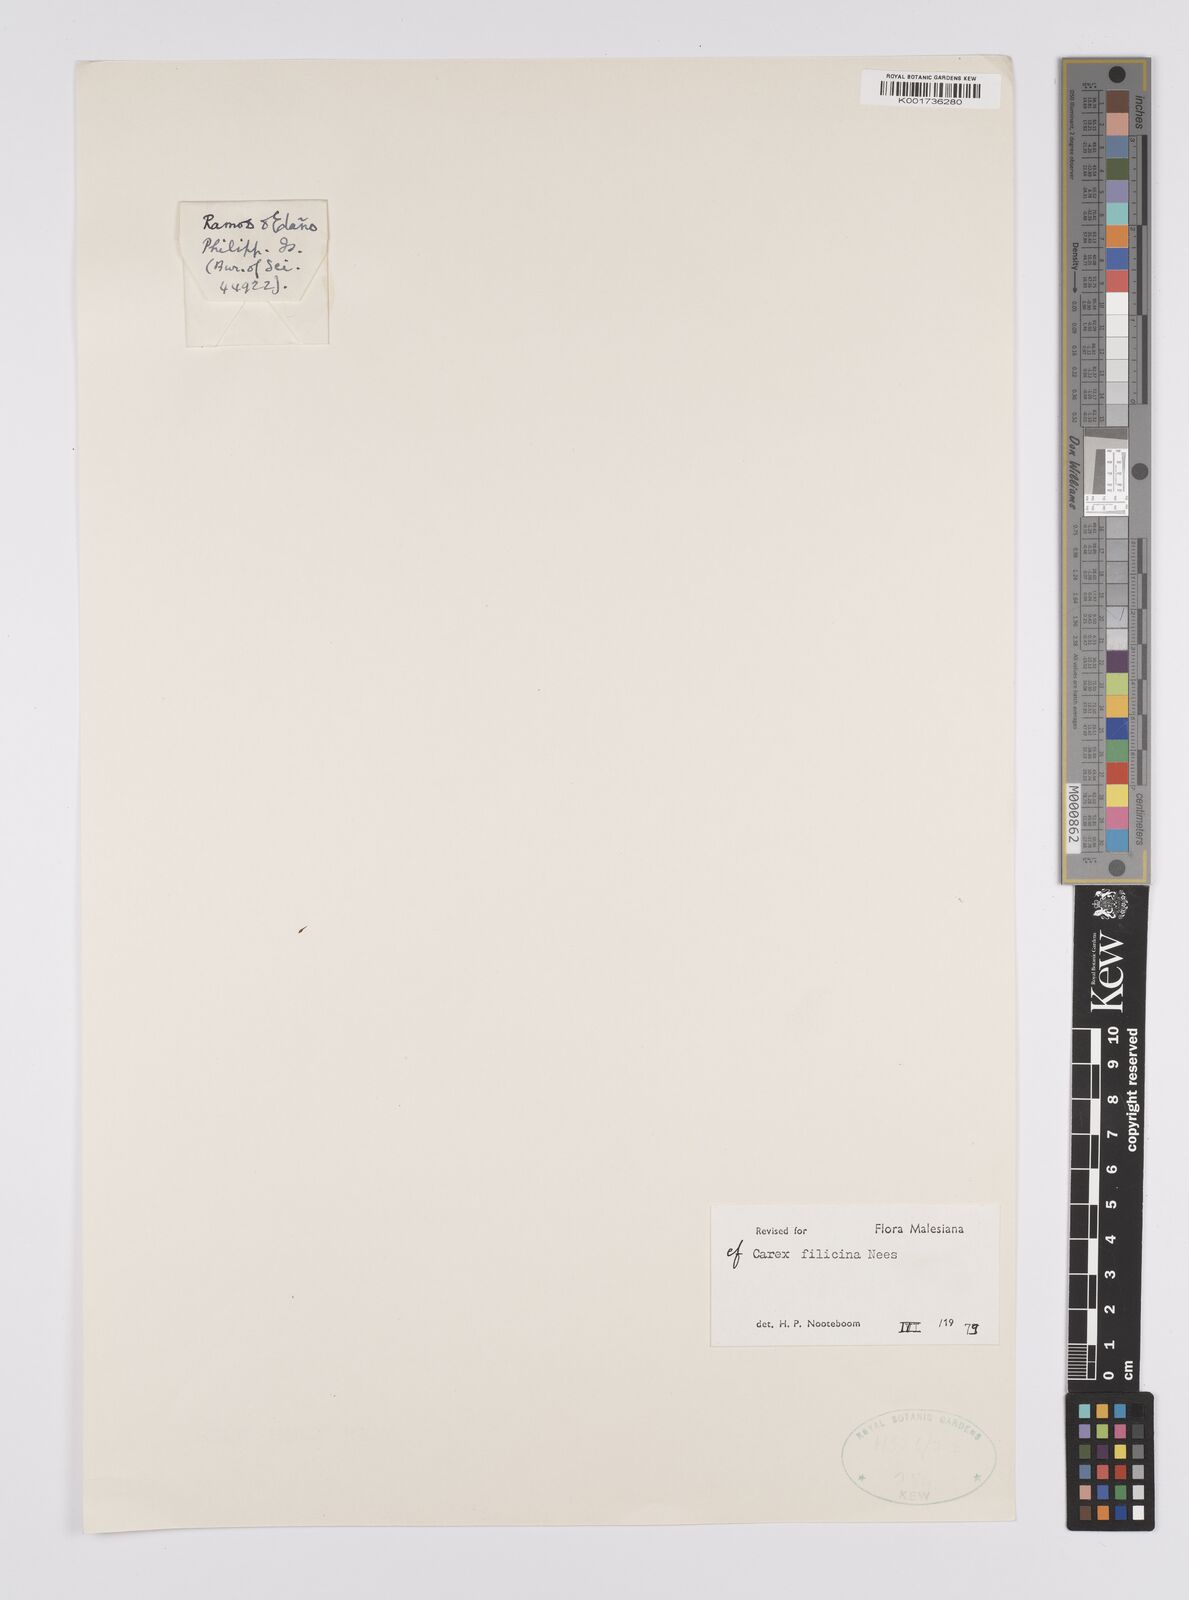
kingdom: Plantae
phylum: Tracheophyta
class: Liliopsida
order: Poales
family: Cyperaceae
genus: Carex
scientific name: Carex filicina
